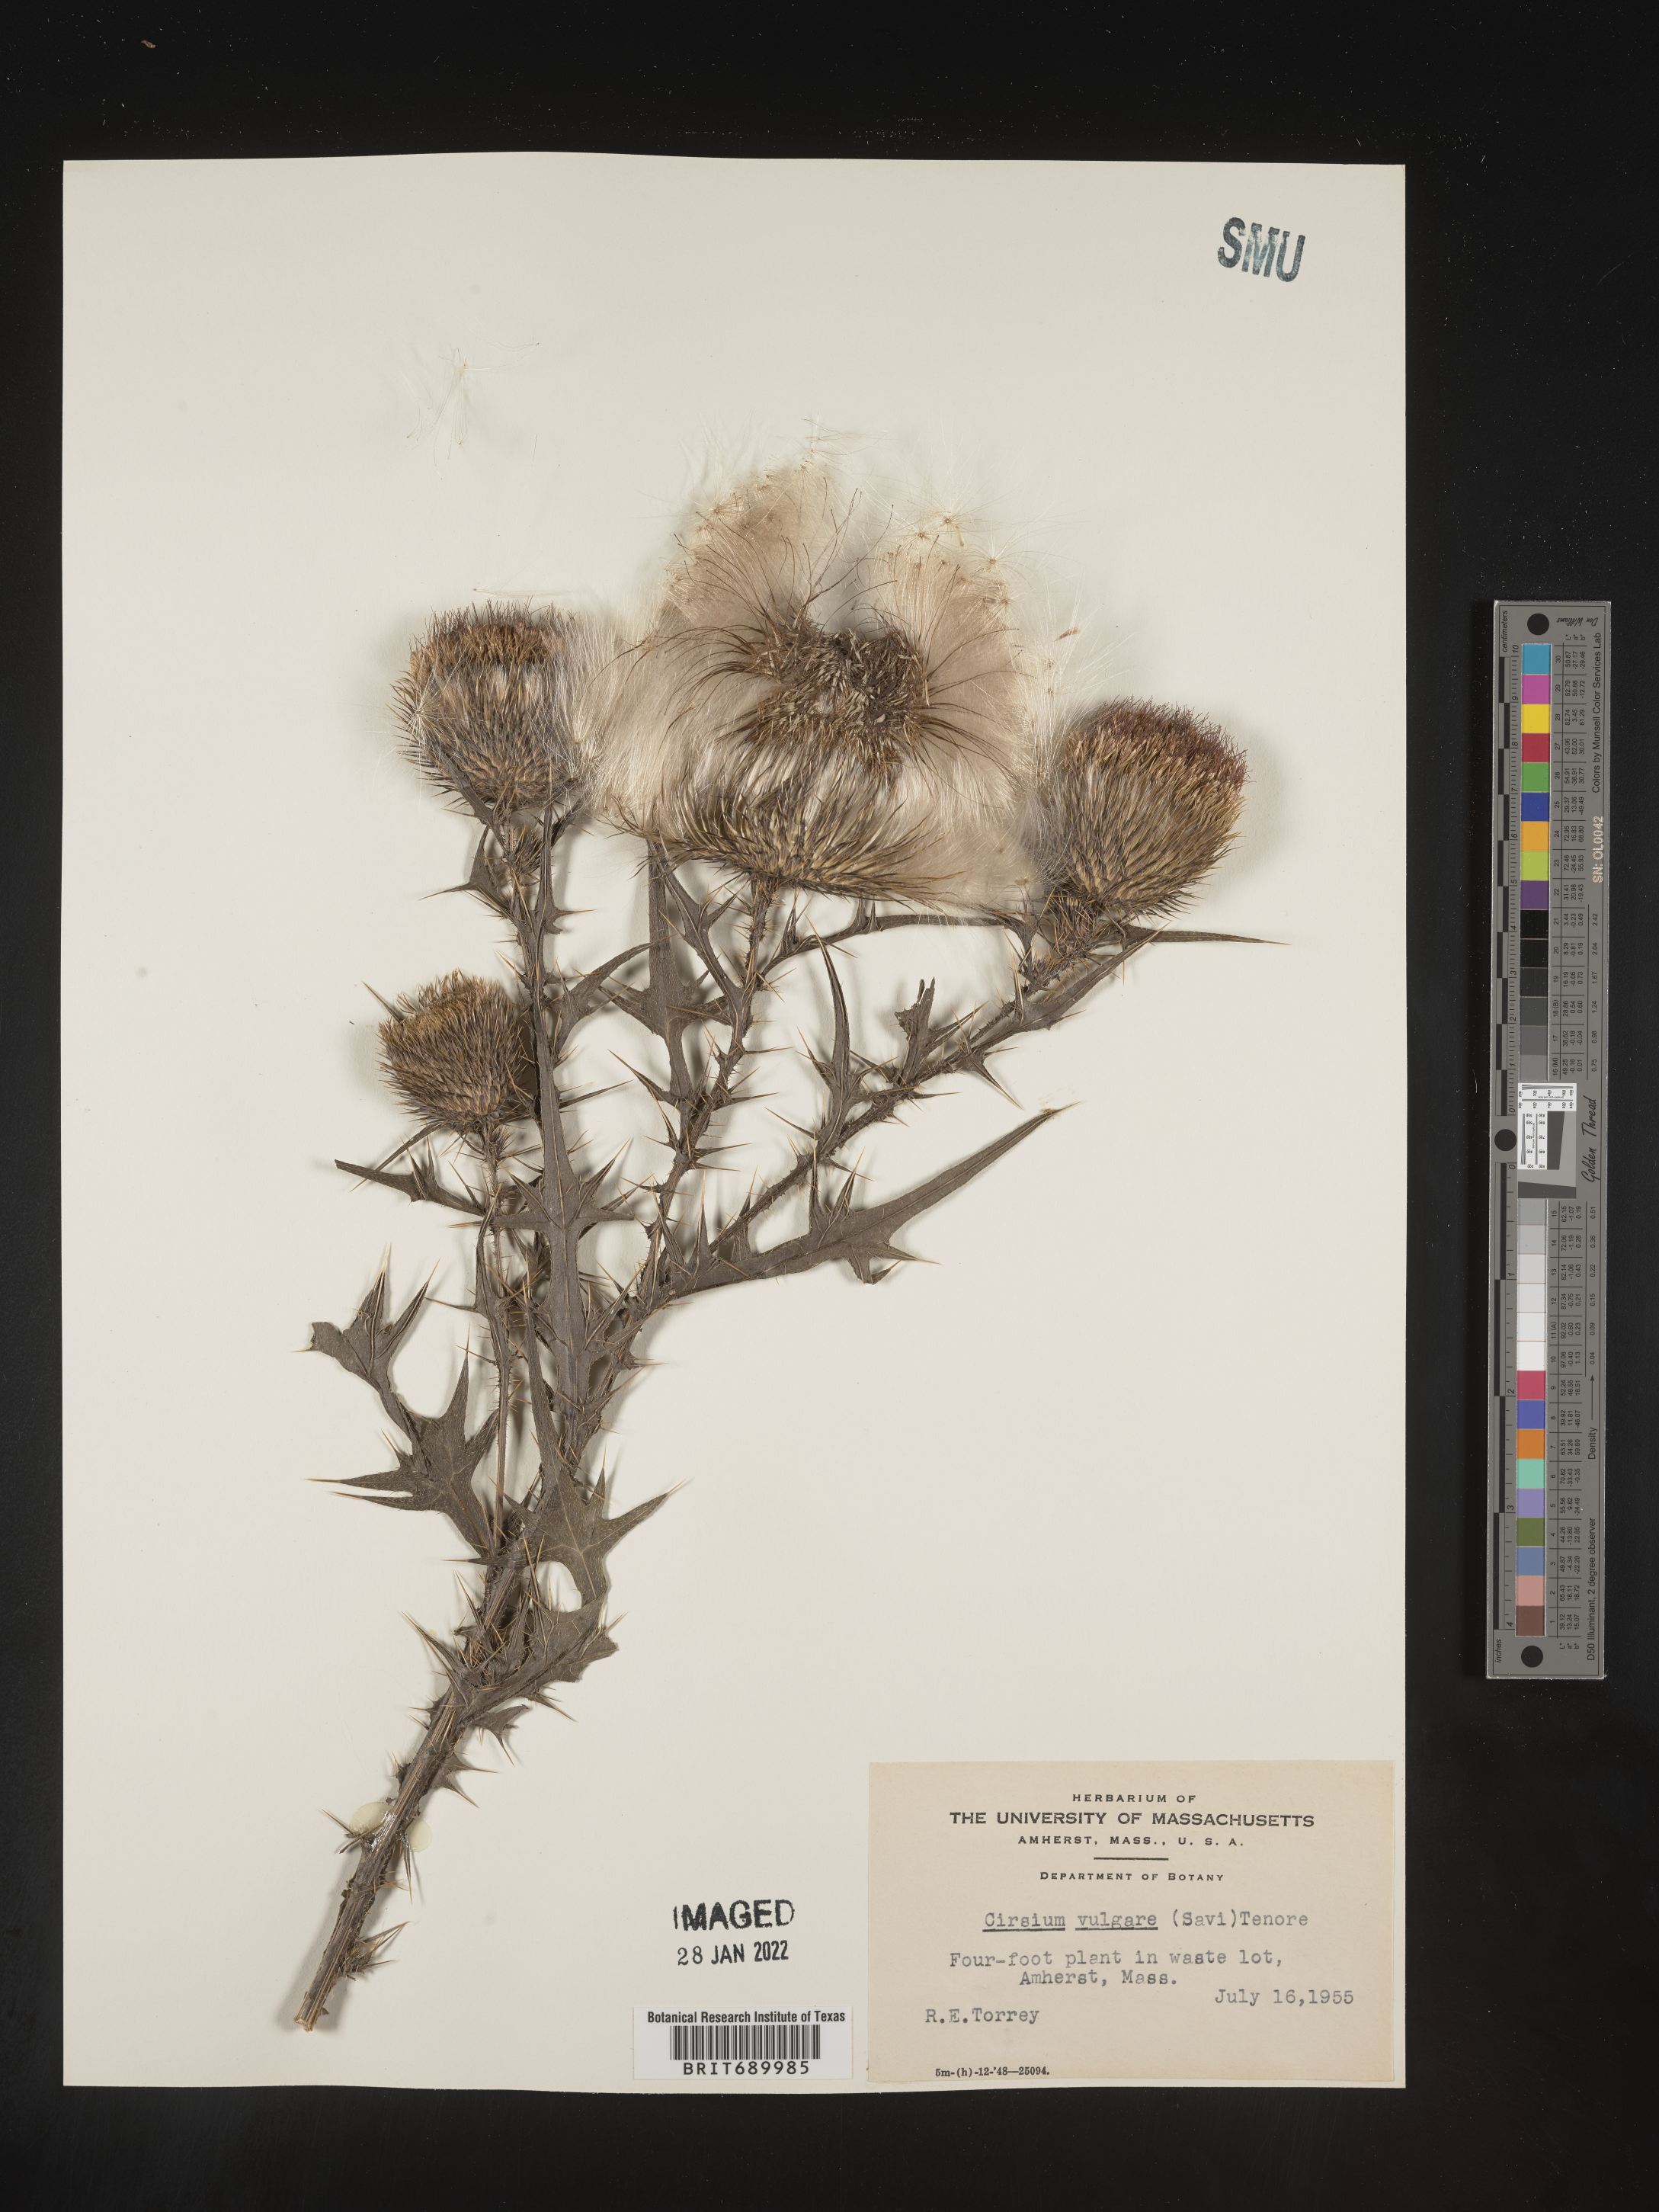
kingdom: Plantae
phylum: Tracheophyta
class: Magnoliopsida
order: Asterales
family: Asteraceae
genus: Cirsium
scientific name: Cirsium vulgare
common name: Bull thistle
